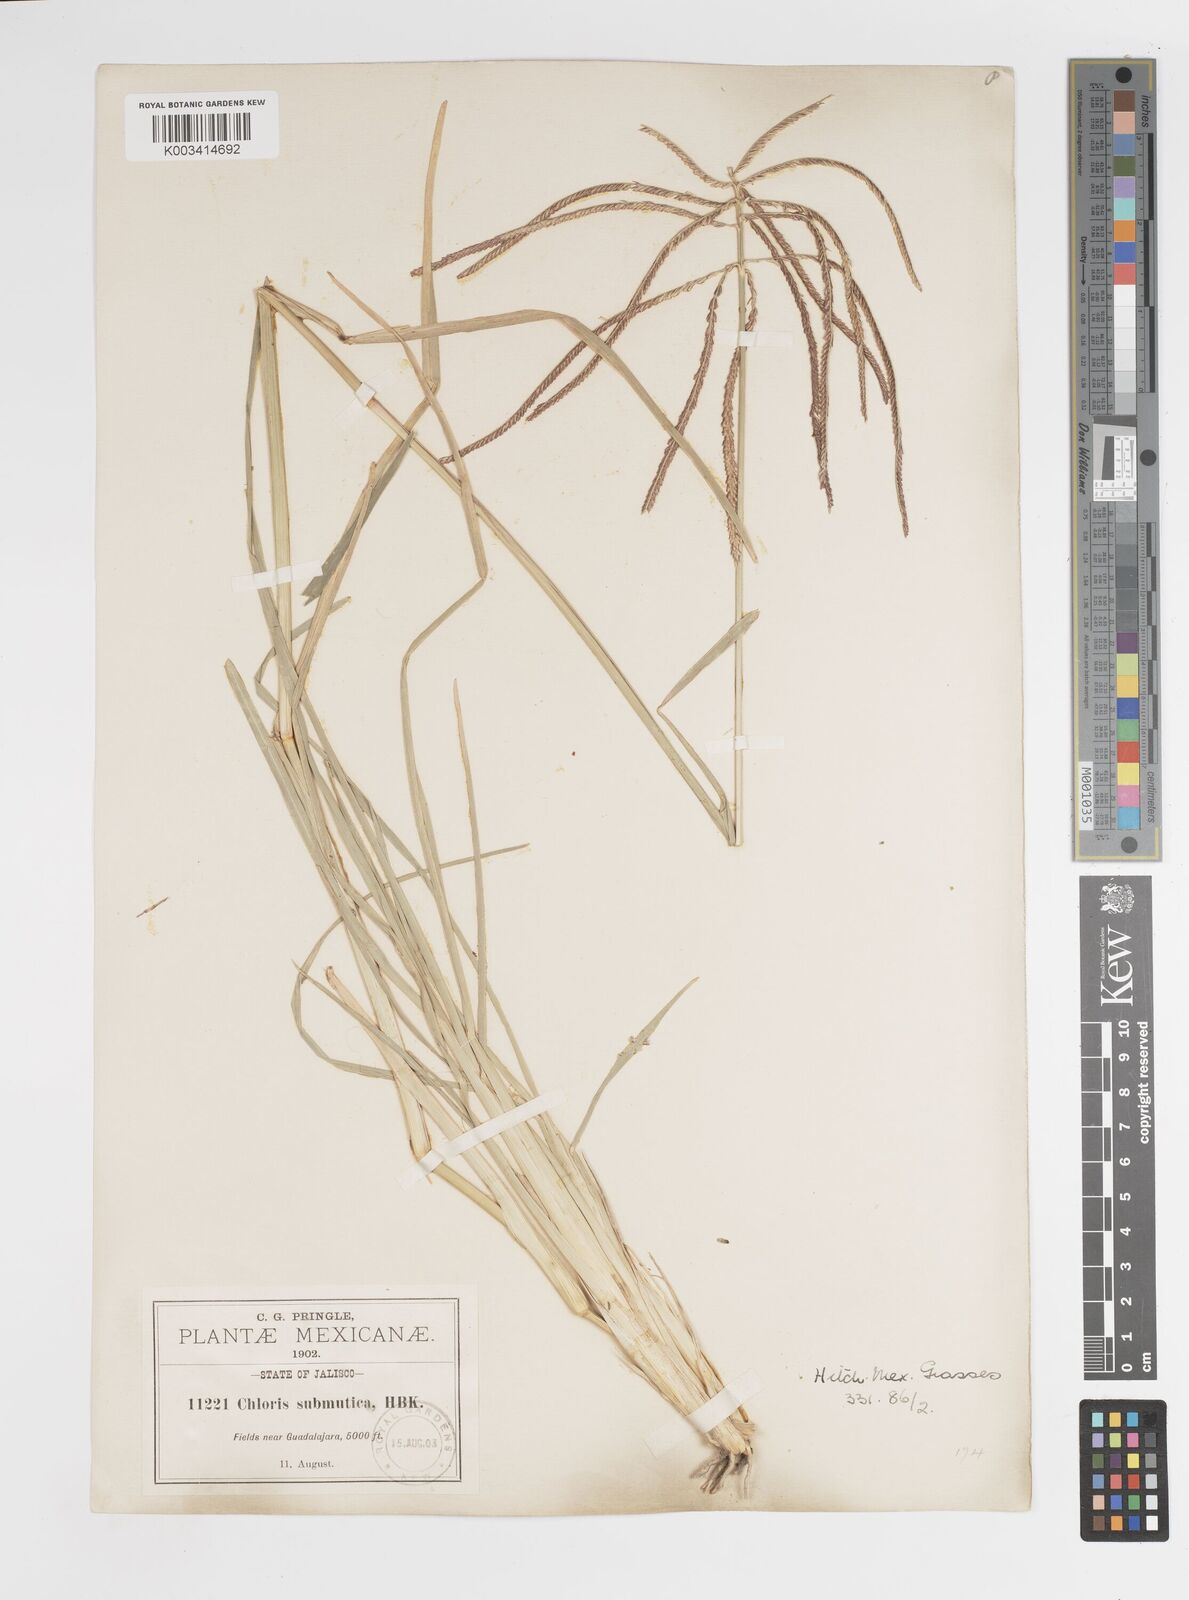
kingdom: Plantae
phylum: Tracheophyta
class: Liliopsida
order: Poales
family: Poaceae
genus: Chloris
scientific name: Chloris submutica
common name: Mexican windmill grass
